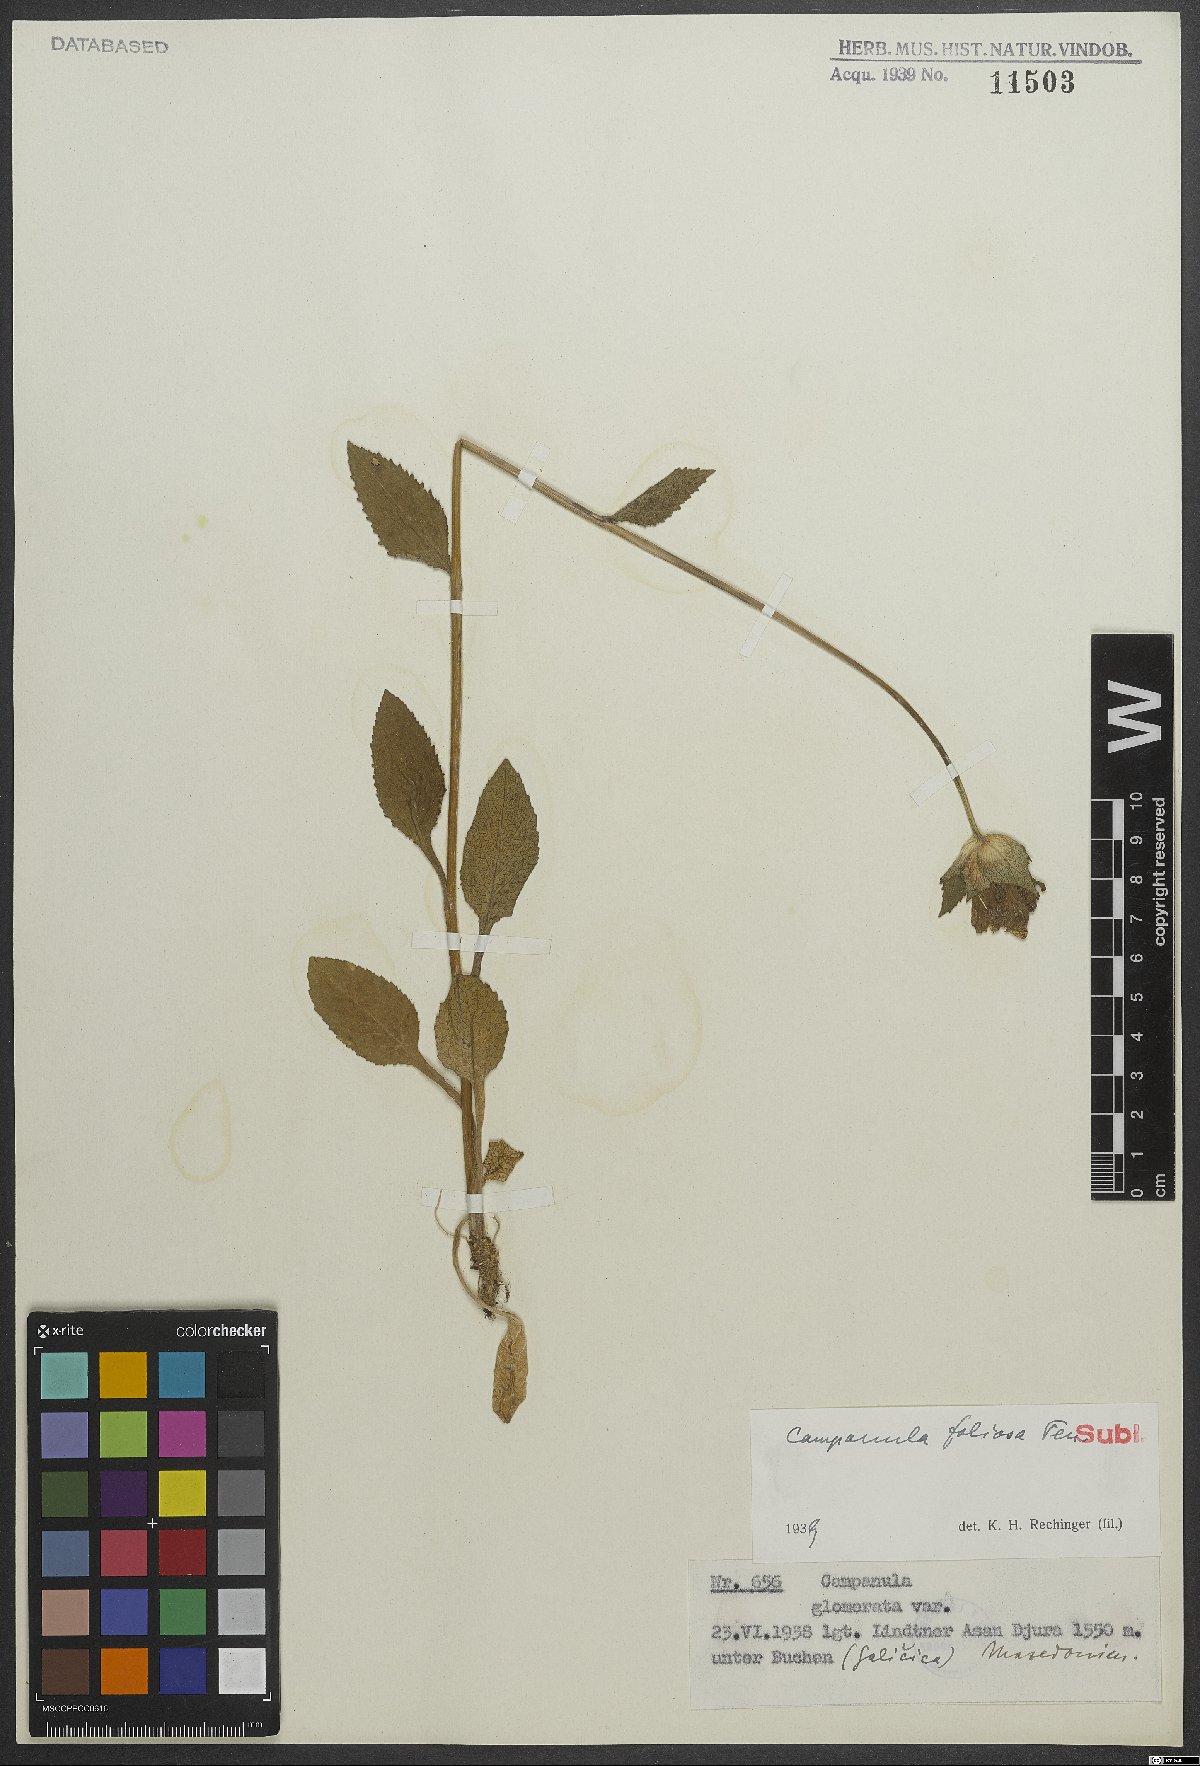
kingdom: Plantae
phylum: Tracheophyta
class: Magnoliopsida
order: Asterales
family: Campanulaceae
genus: Campanula
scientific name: Campanula foliosa
